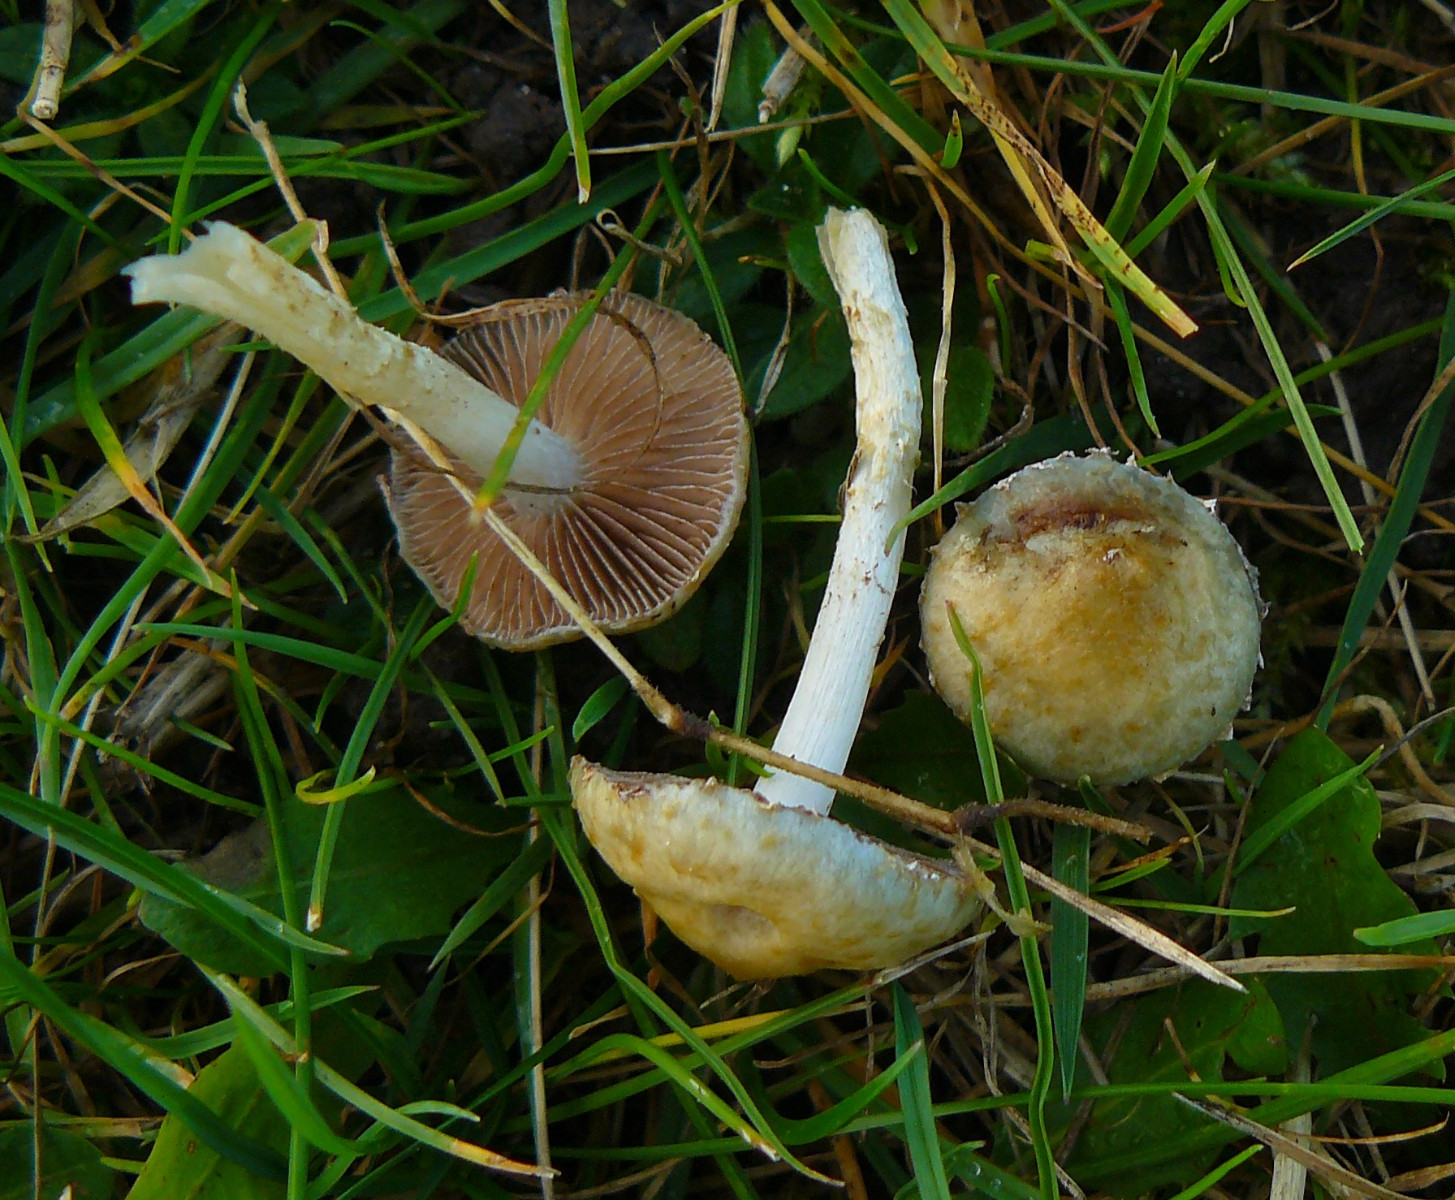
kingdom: Fungi
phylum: Basidiomycota
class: Agaricomycetes
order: Agaricales
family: Strophariaceae
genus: Stropharia
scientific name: Stropharia
